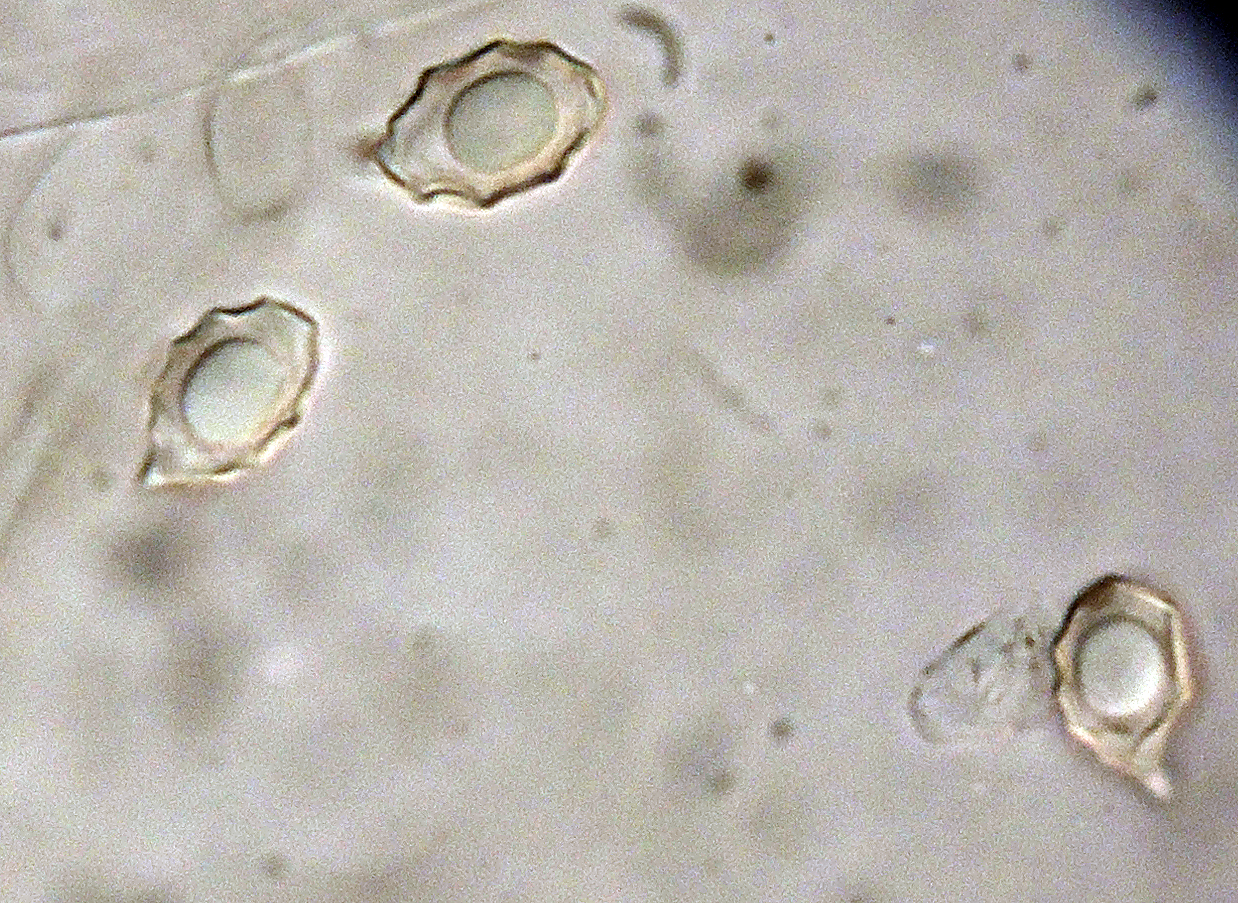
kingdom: Fungi
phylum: Basidiomycota
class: Agaricomycetes
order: Agaricales
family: Entolomataceae
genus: Entoloma
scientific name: Entoloma tjallingiorum
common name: prægtig rødblad
